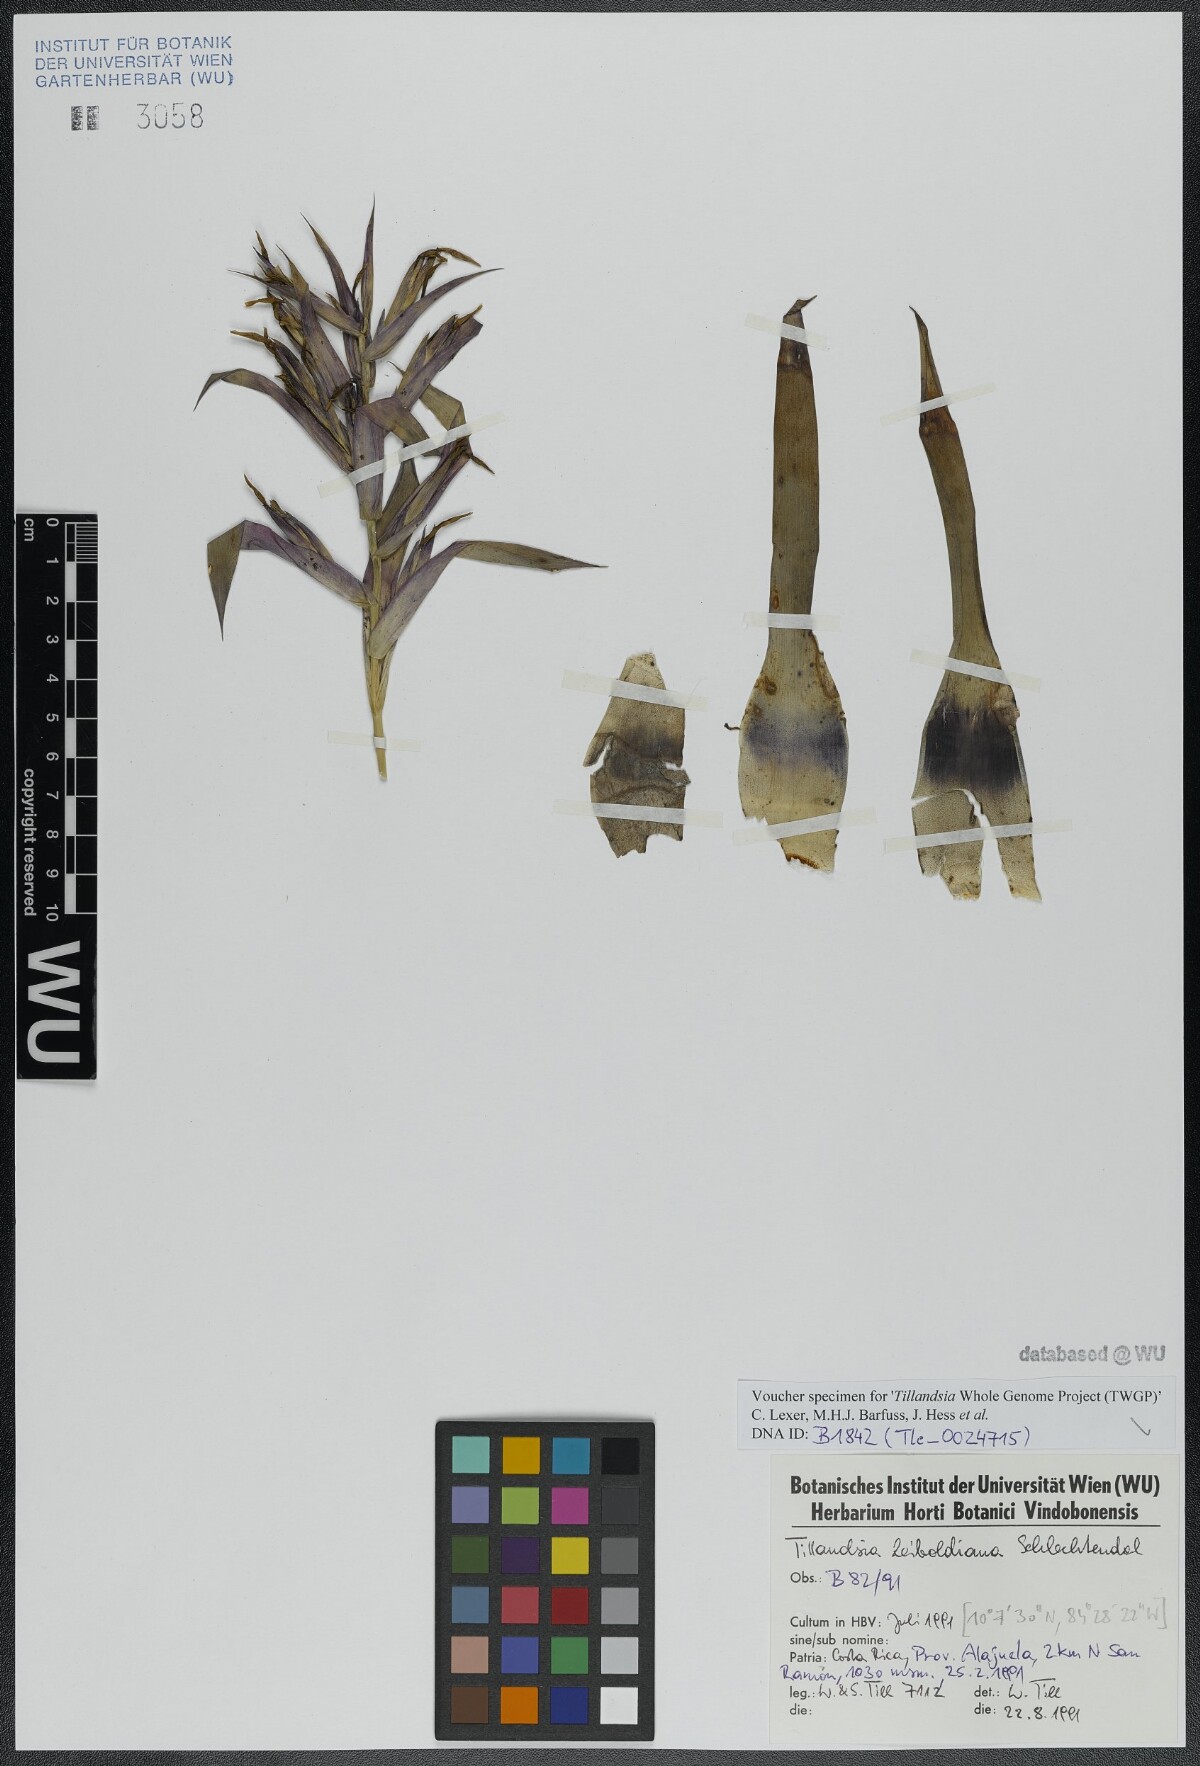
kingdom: Plantae
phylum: Tracheophyta
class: Liliopsida
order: Poales
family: Bromeliaceae
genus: Tillandsia
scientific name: Tillandsia leiboldiana
